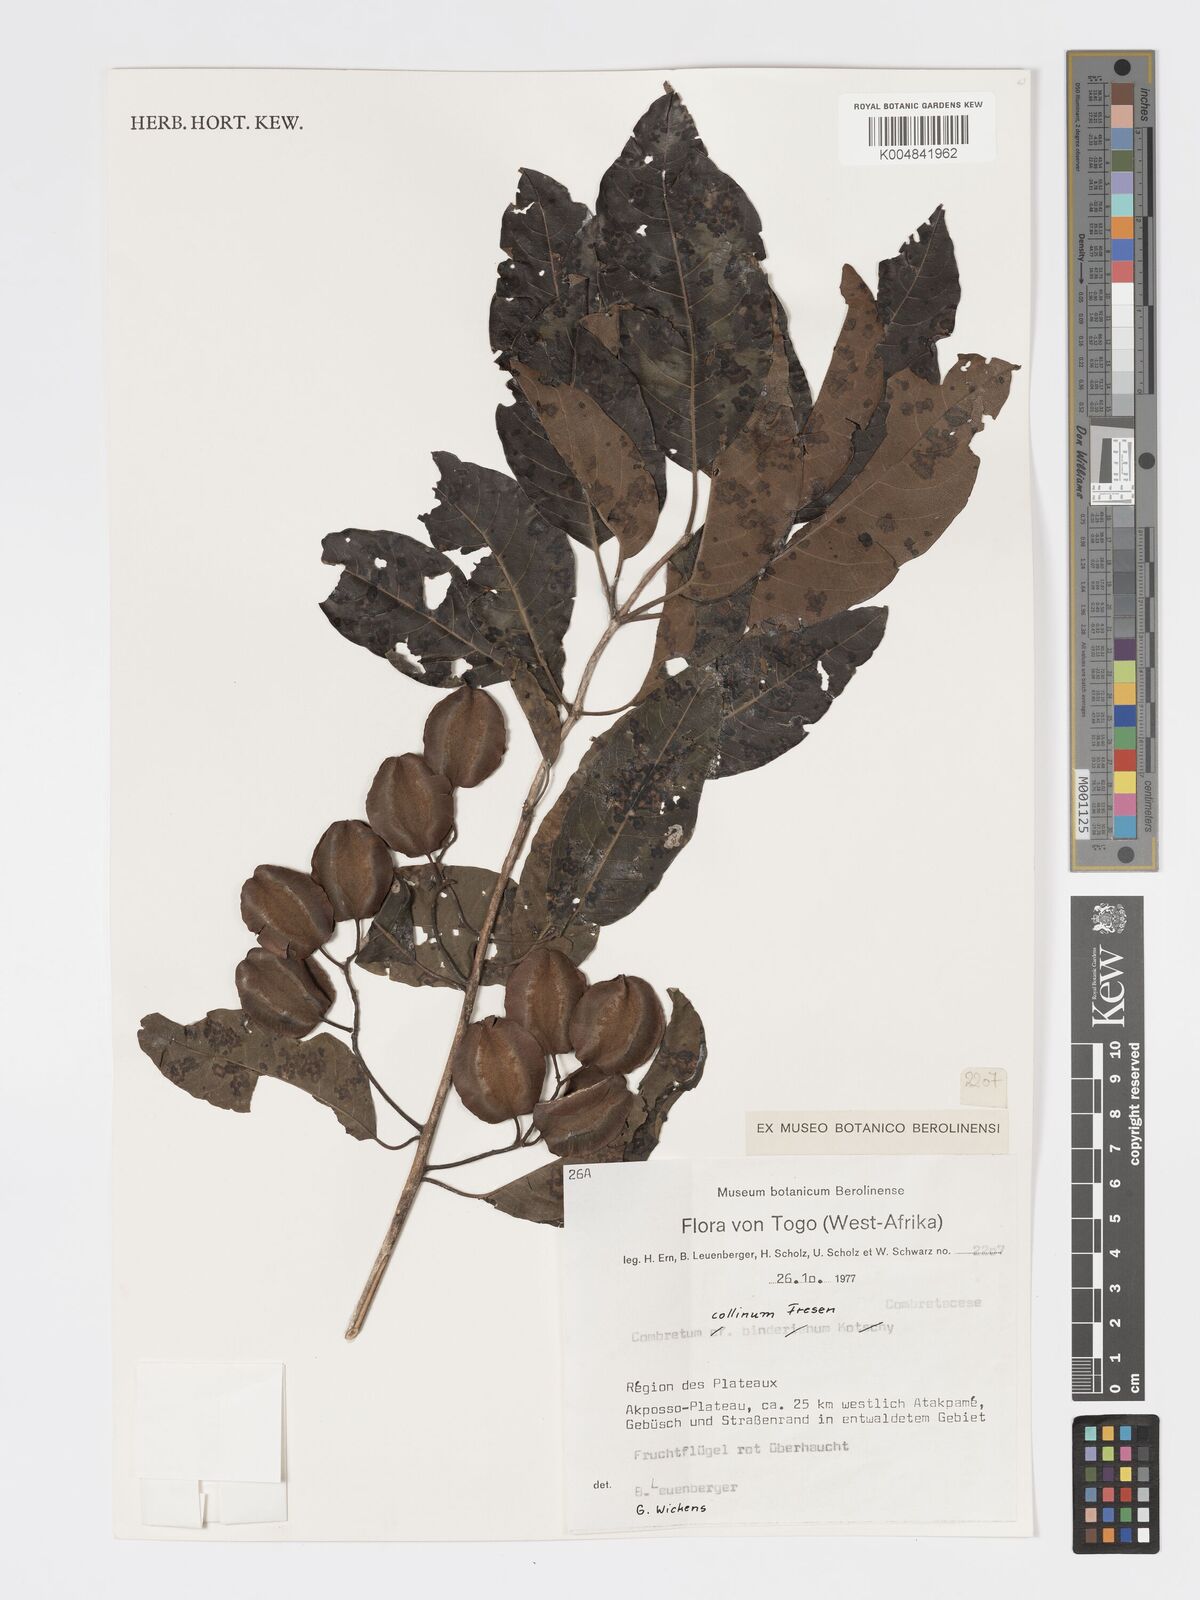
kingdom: Plantae
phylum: Tracheophyta
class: Magnoliopsida
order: Myrtales
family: Combretaceae
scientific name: Combretaceae
